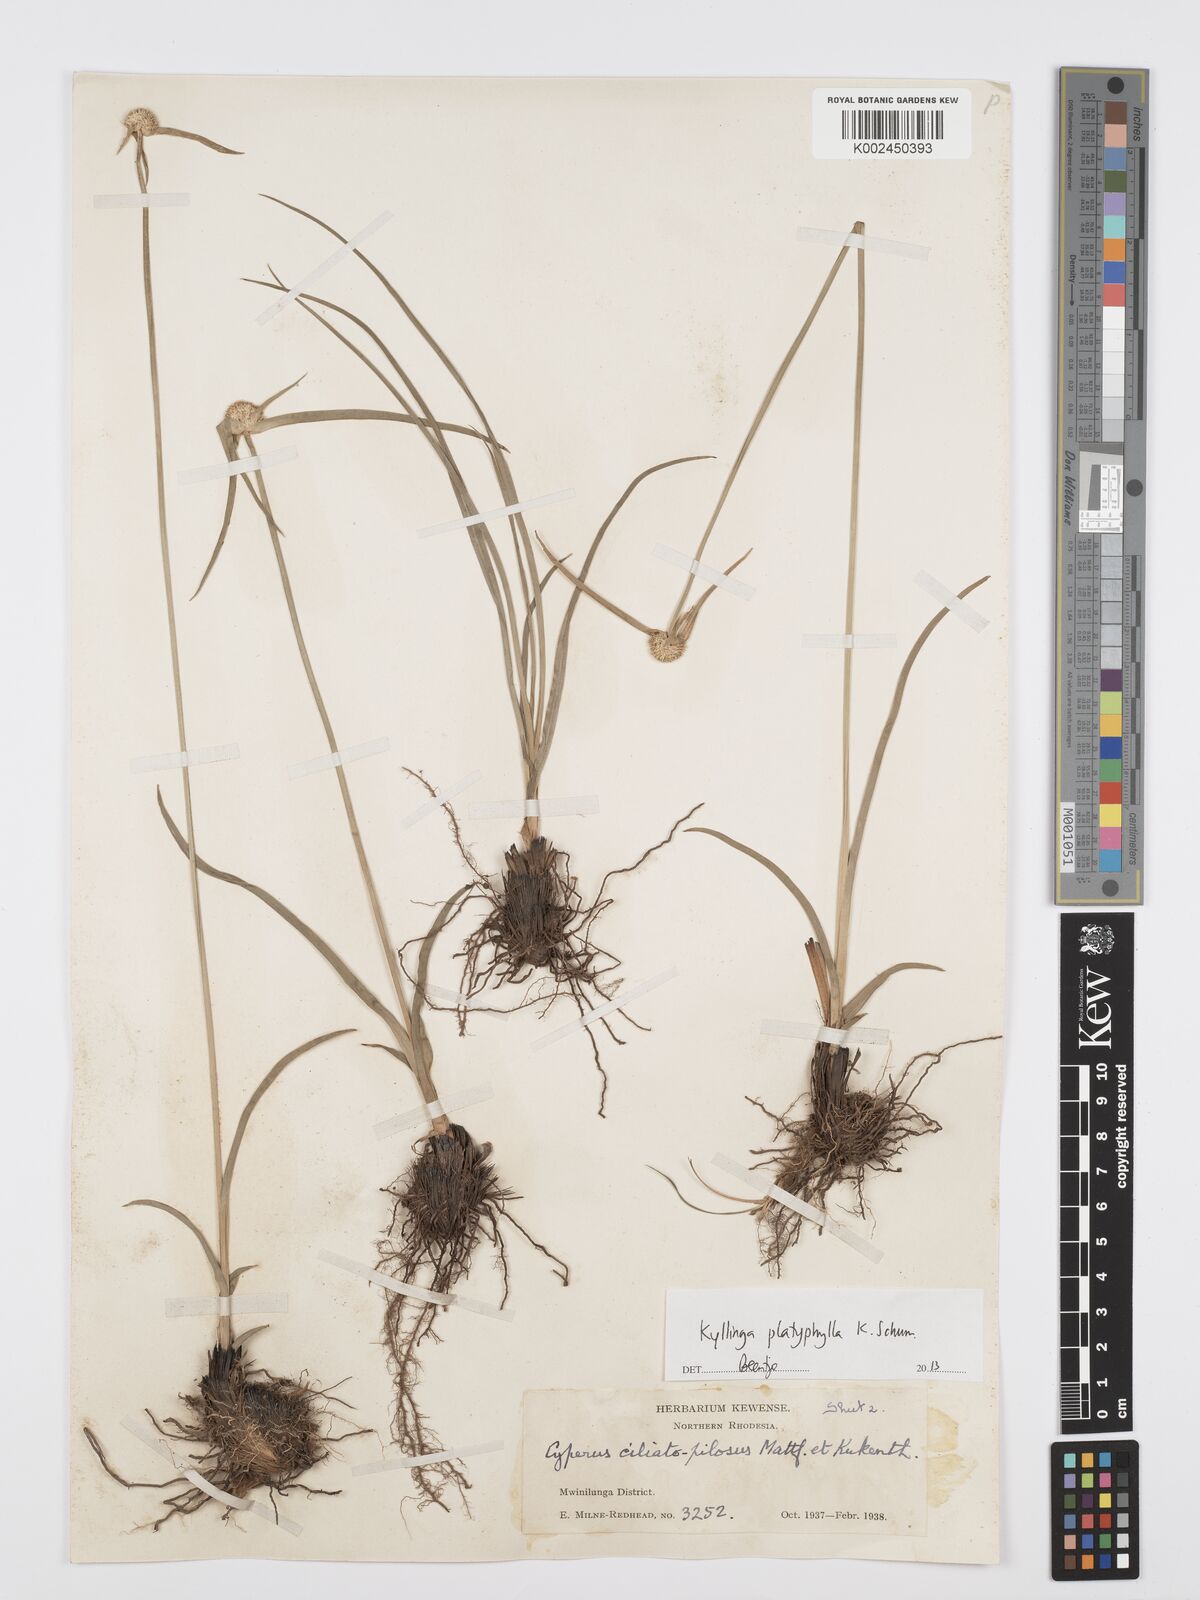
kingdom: Plantae
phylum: Tracheophyta
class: Liliopsida
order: Poales
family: Cyperaceae
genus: Cyperus
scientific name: Cyperus
